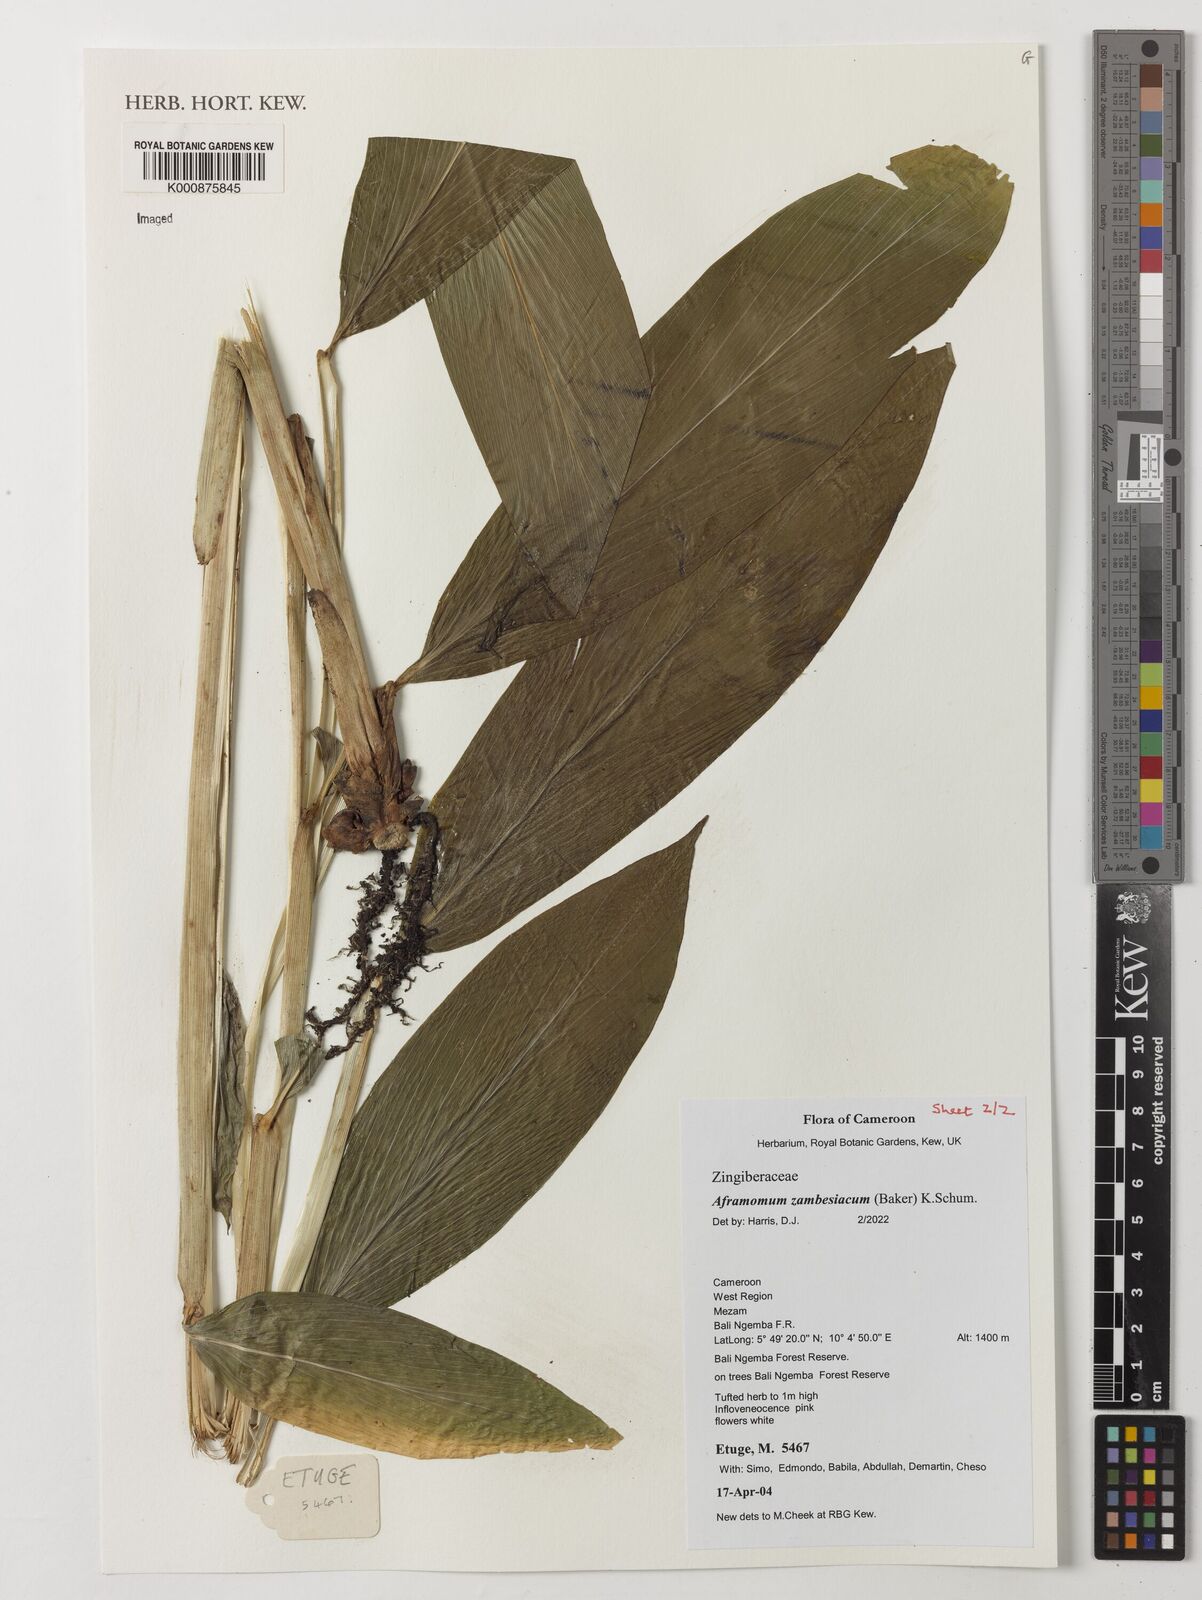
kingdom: Plantae
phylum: Tracheophyta
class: Liliopsida
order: Zingiberales
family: Zingiberaceae
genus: Aframomum
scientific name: Aframomum zambesiacum
